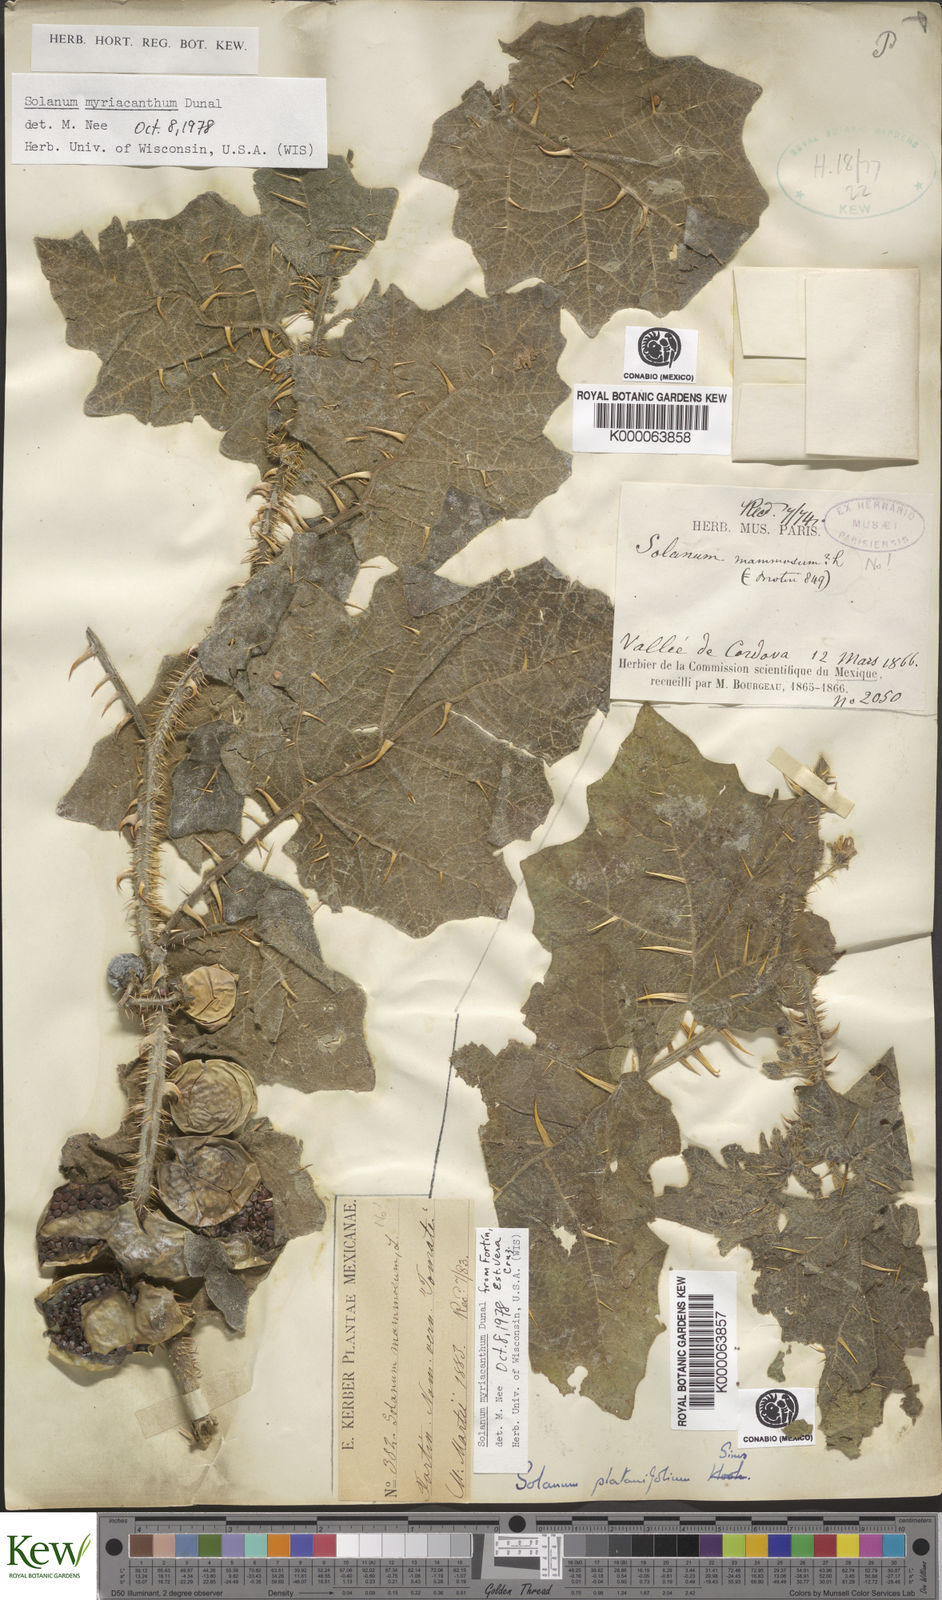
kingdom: Plantae
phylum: Tracheophyta
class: Magnoliopsida
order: Solanales
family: Solanaceae
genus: Solanum
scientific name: Solanum myriacanthum
